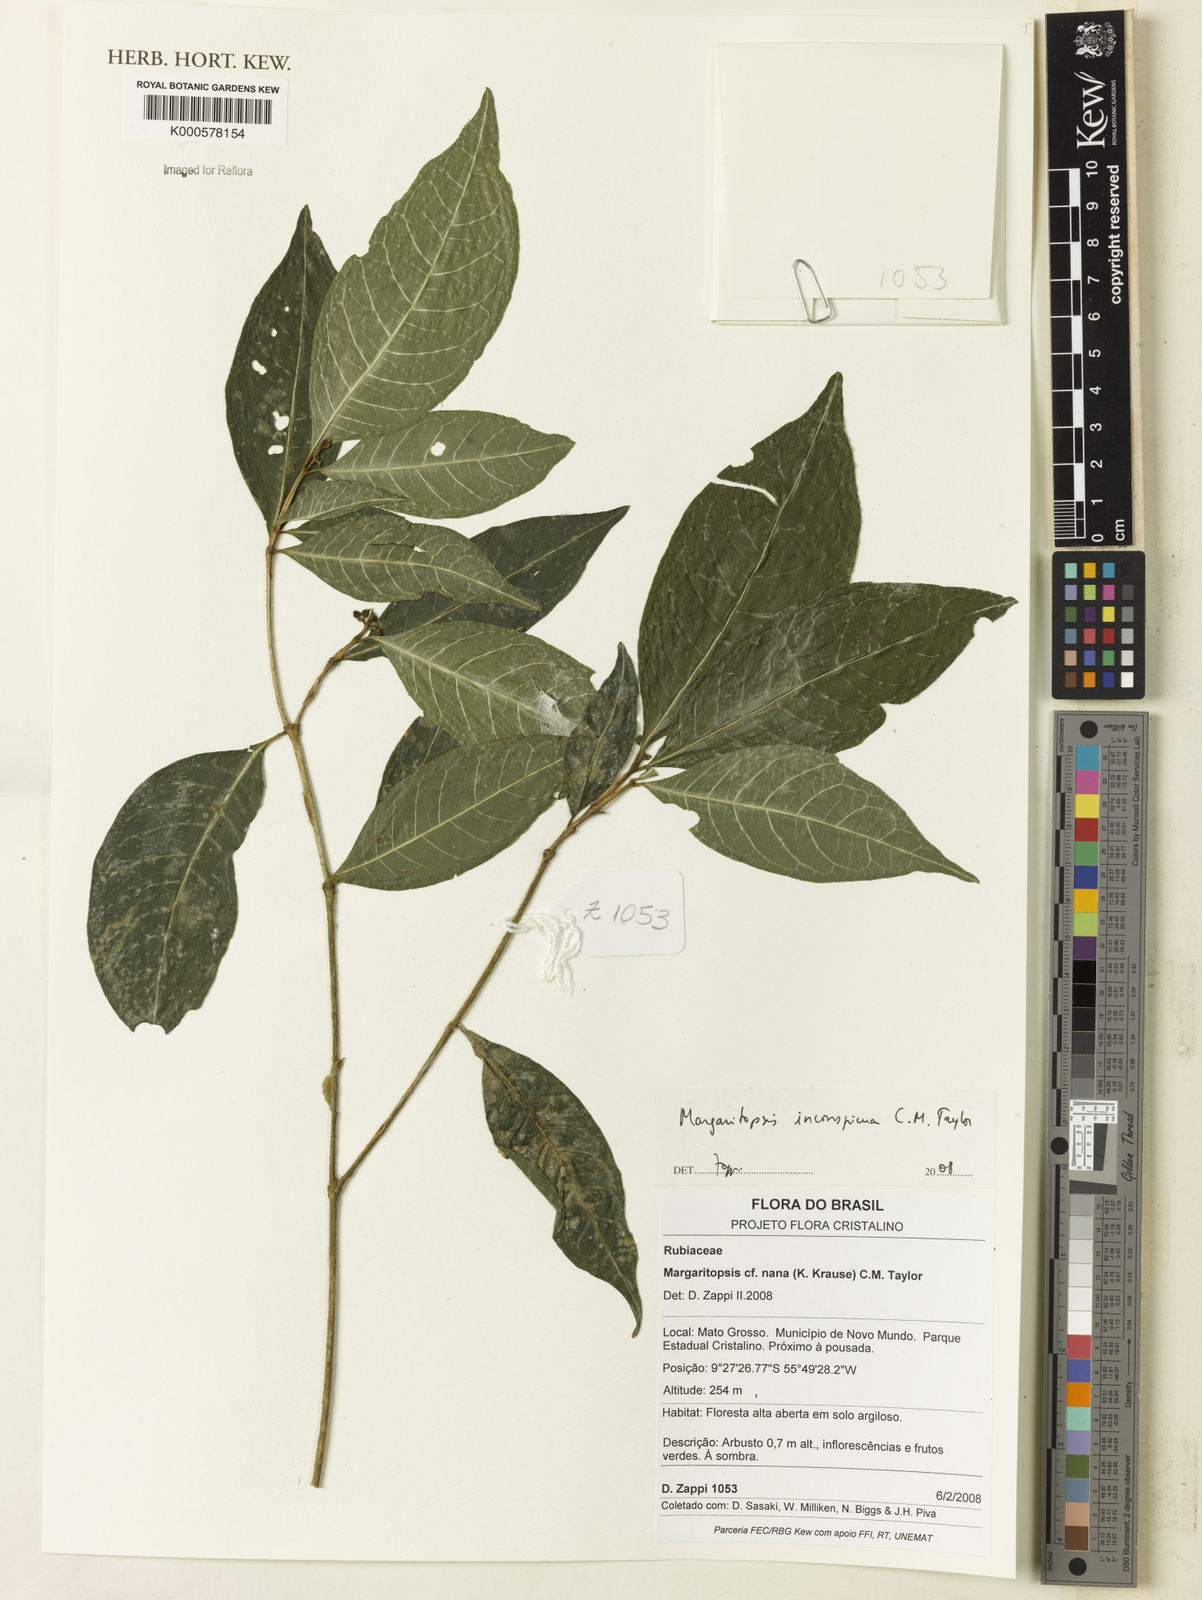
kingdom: Plantae
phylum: Tracheophyta
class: Magnoliopsida
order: Gentianales
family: Rubiaceae
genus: Eumachia
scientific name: Eumachia inconspicua
